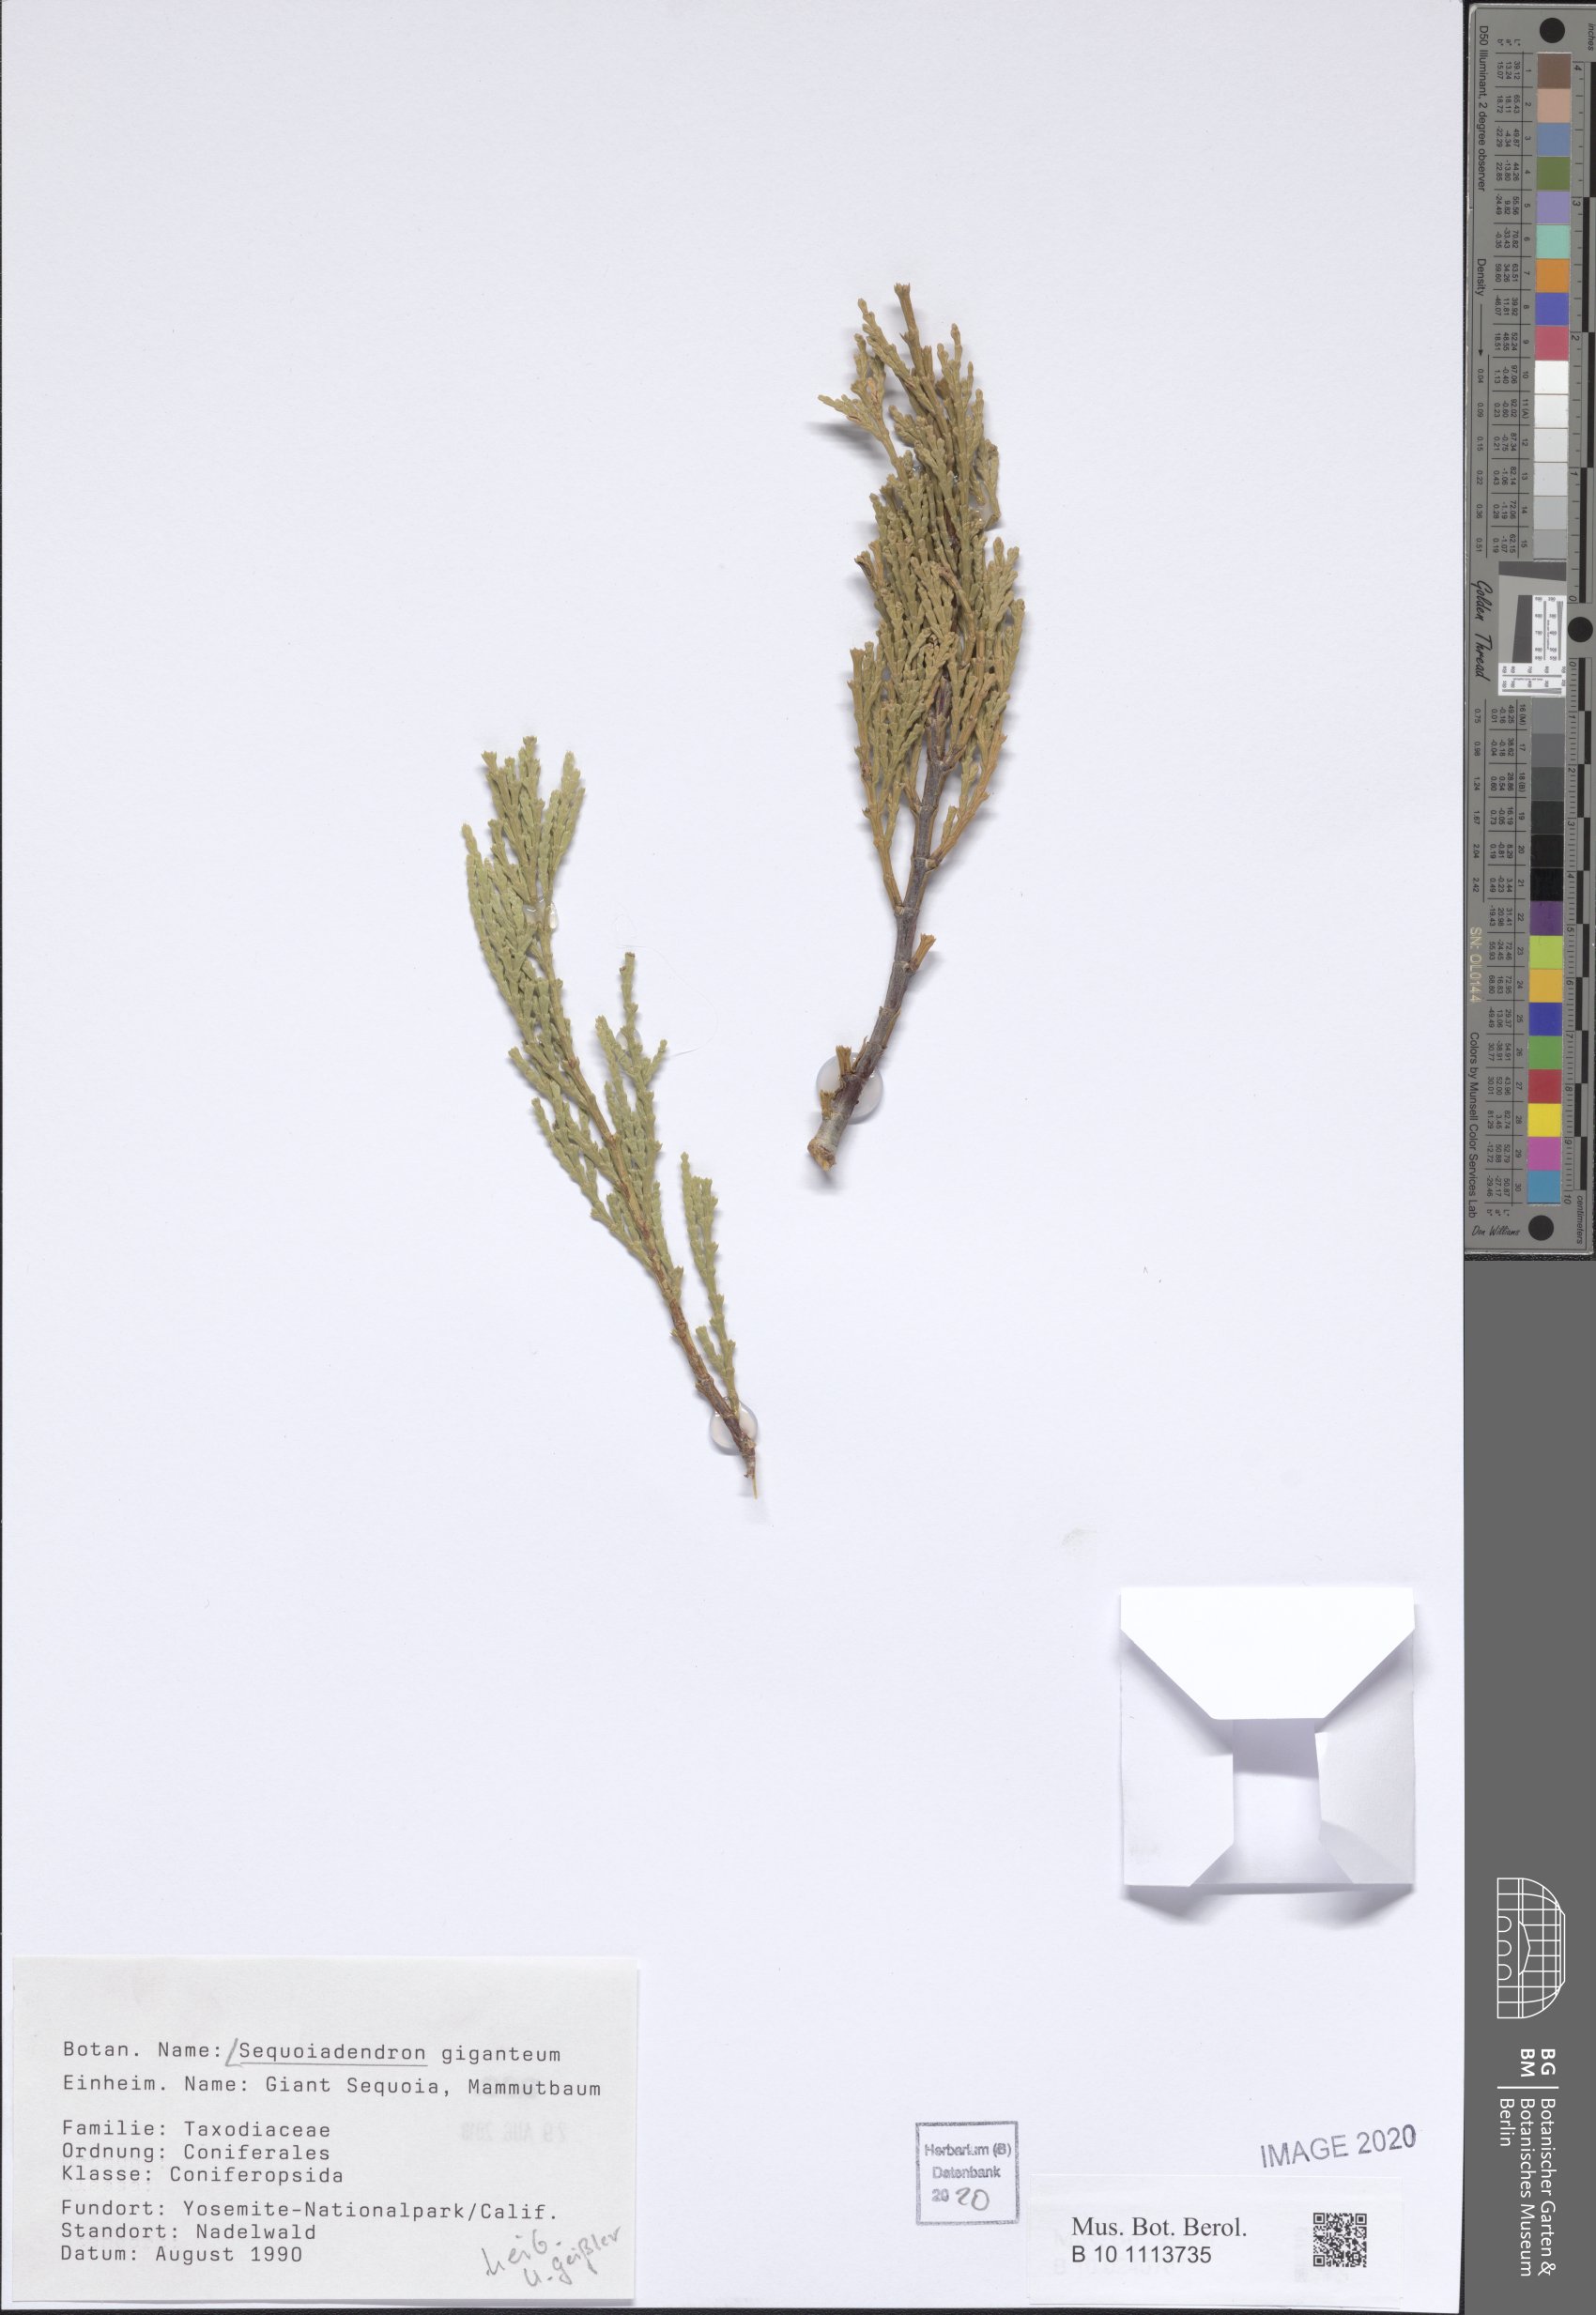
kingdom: Plantae
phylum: Tracheophyta
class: Pinopsida
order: Pinales
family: Cupressaceae
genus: Sequoiadendron
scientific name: Sequoiadendron giganteum
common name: Wellingtonia
